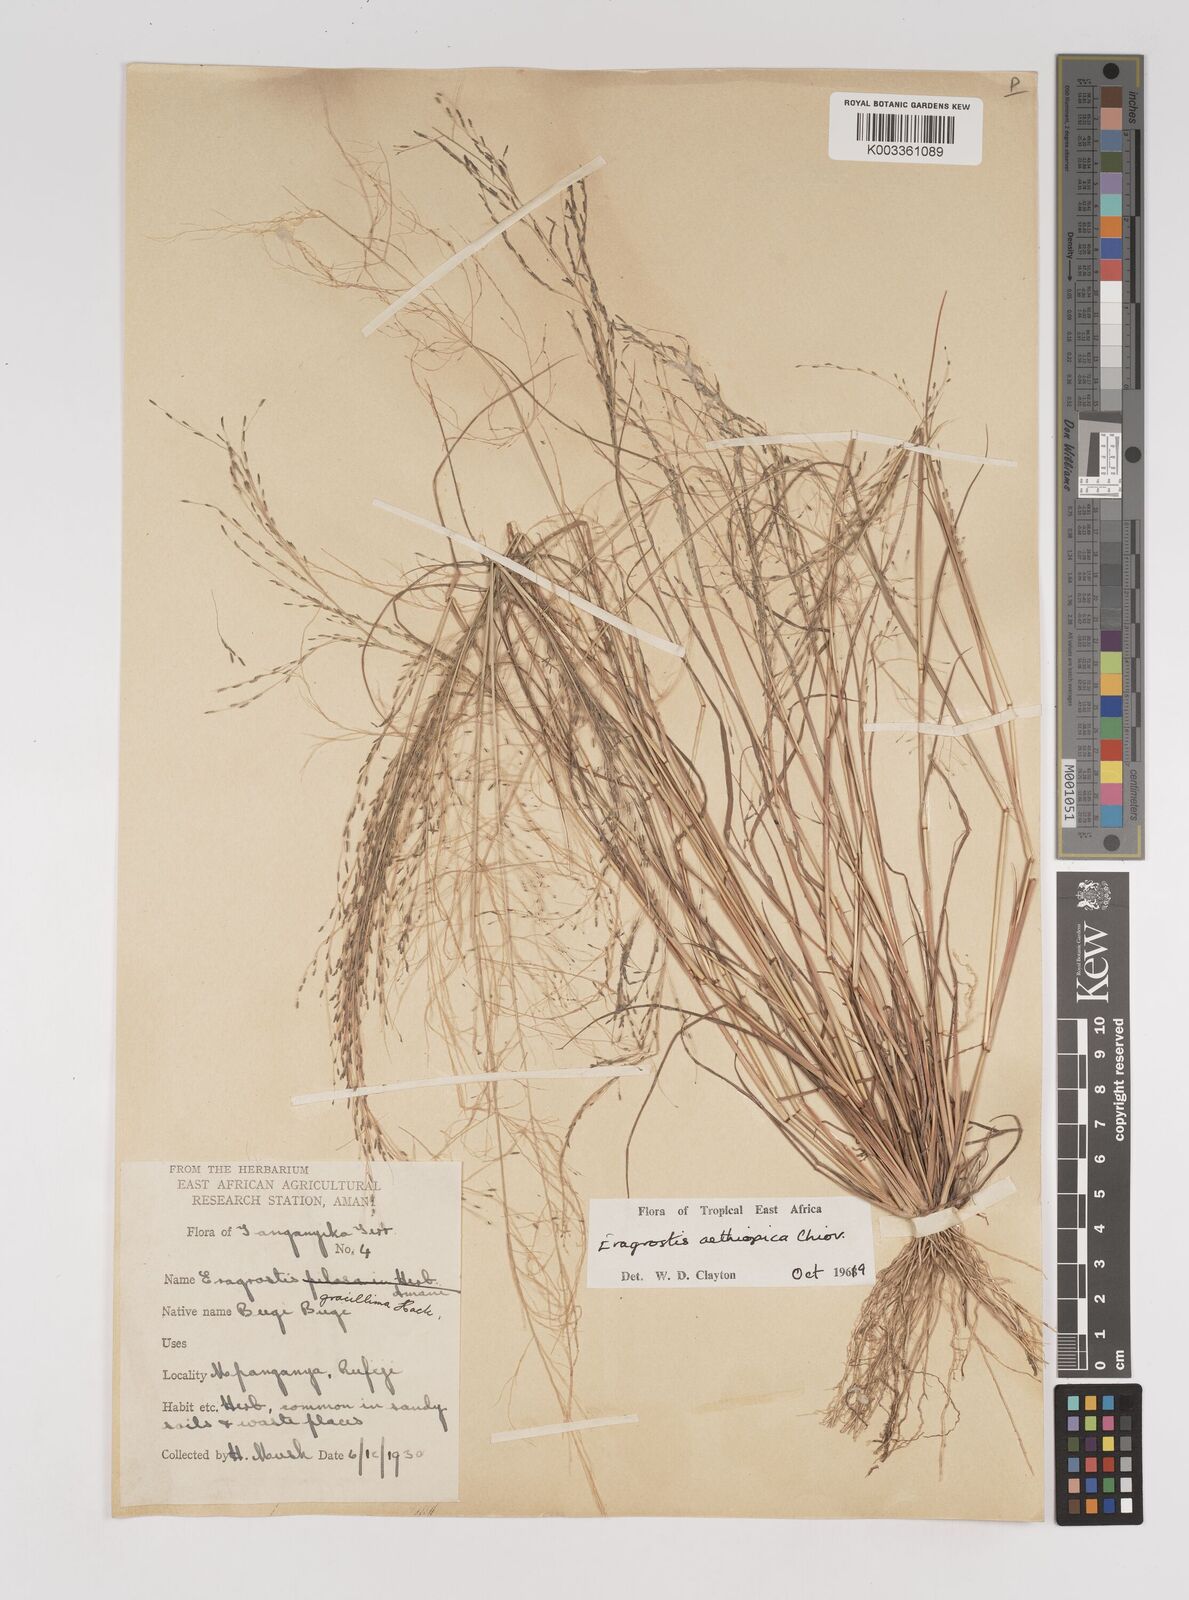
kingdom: Plantae
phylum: Tracheophyta
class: Liliopsida
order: Poales
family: Poaceae
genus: Eragrostis
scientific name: Eragrostis aethiopica
